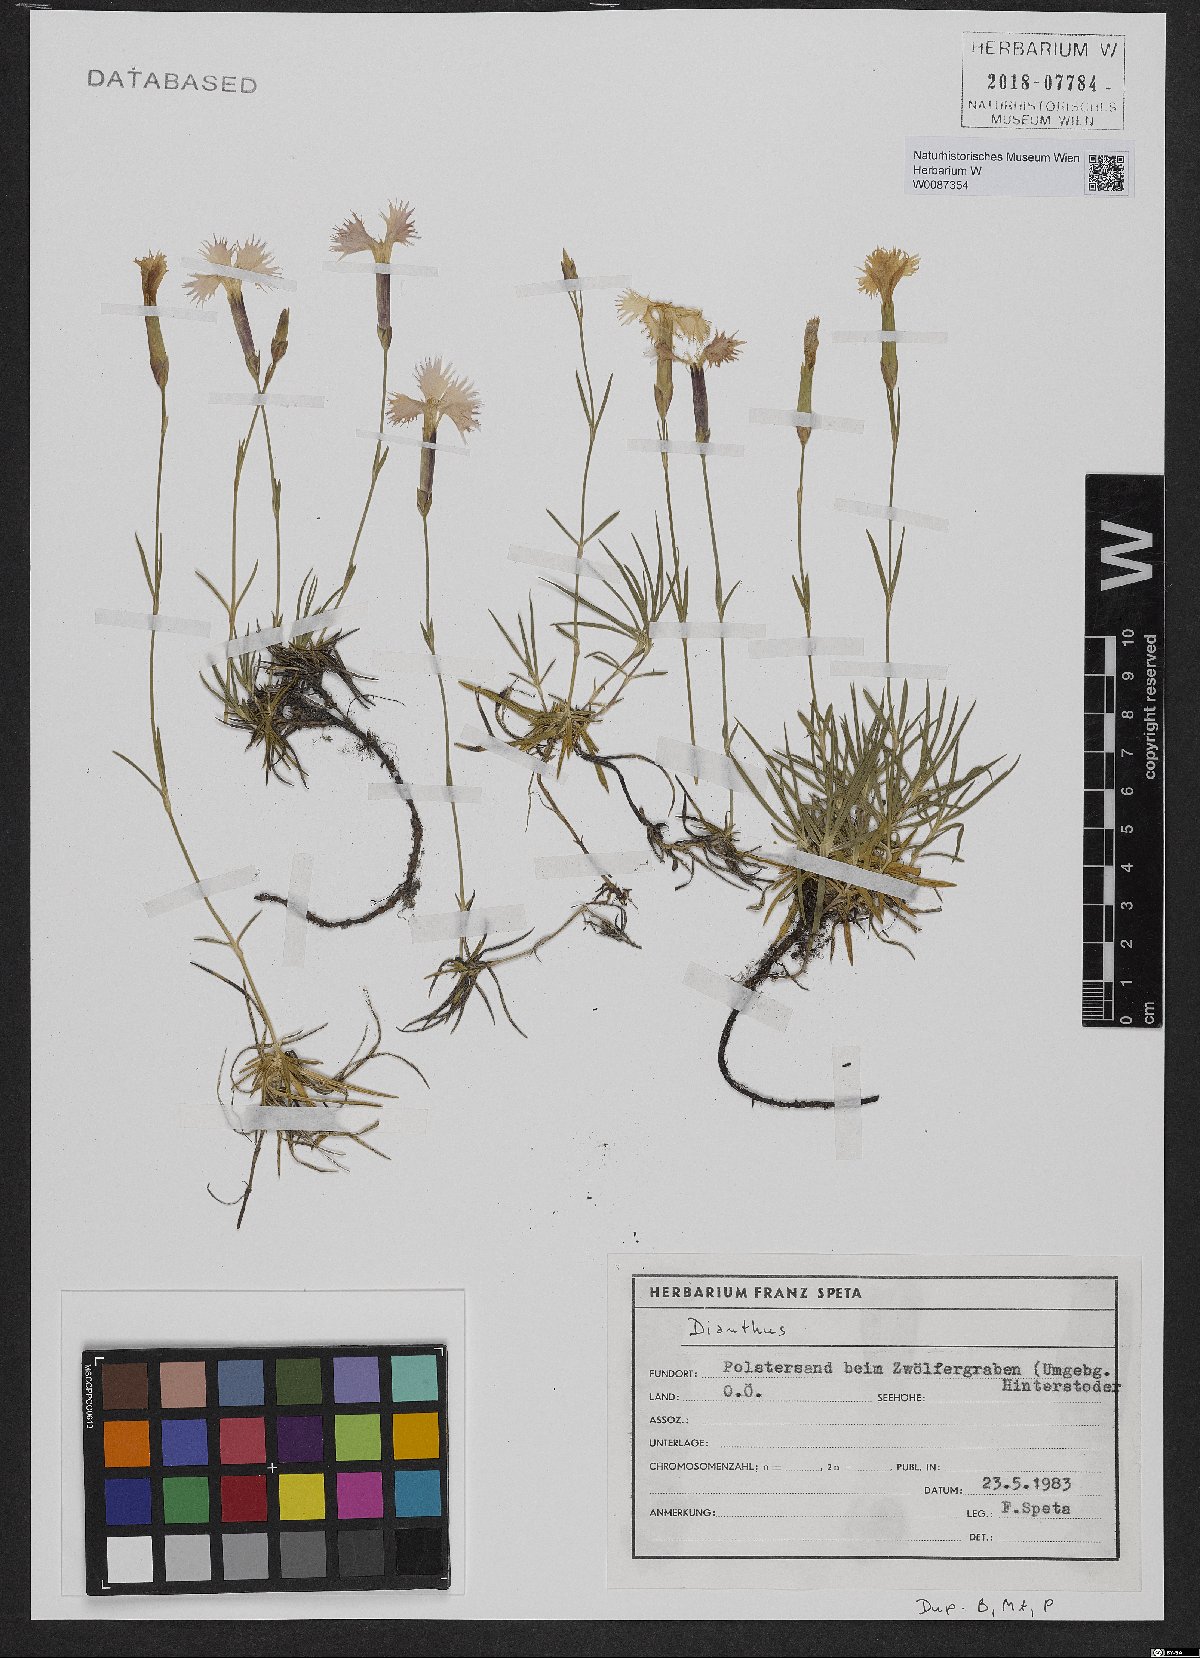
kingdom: Plantae
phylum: Tracheophyta
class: Magnoliopsida
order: Caryophyllales
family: Caryophyllaceae
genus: Dianthus
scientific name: Dianthus plumarius
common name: Pink
